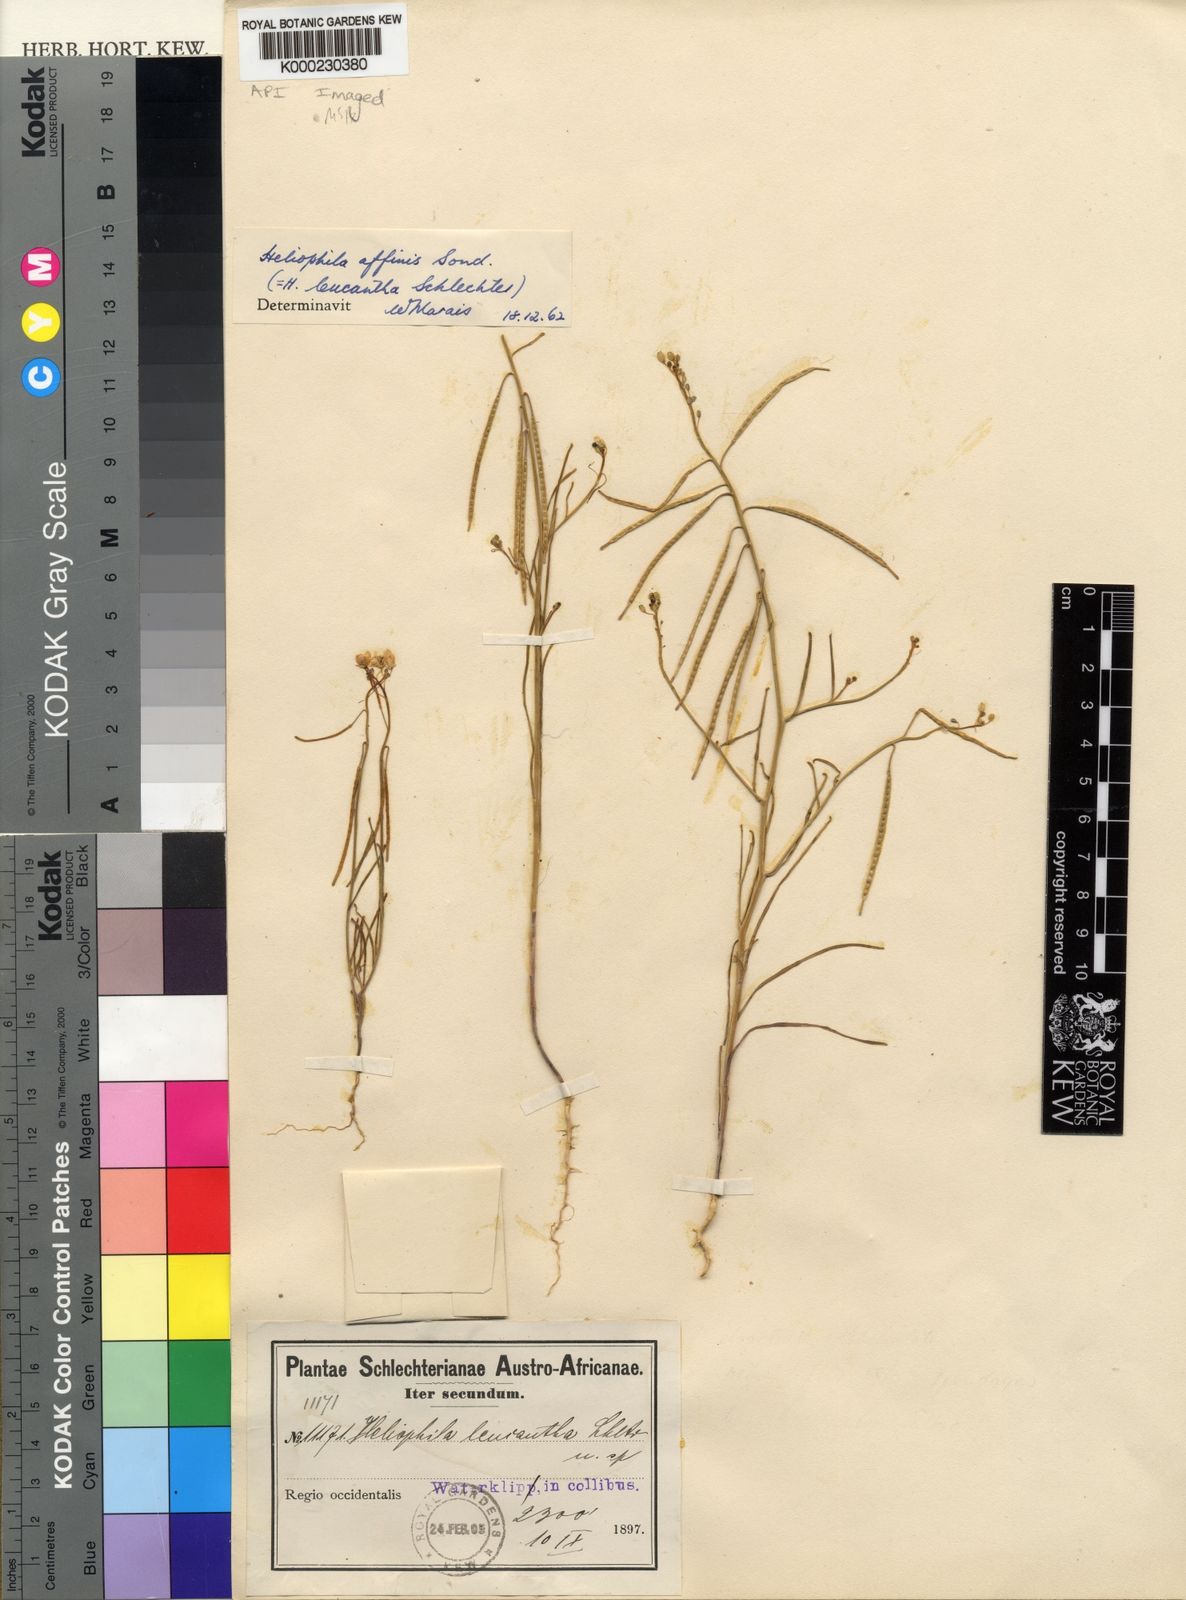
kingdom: Plantae
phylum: Tracheophyta
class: Magnoliopsida
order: Brassicales
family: Brassicaceae
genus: Heliophila
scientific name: Heliophila affinis
